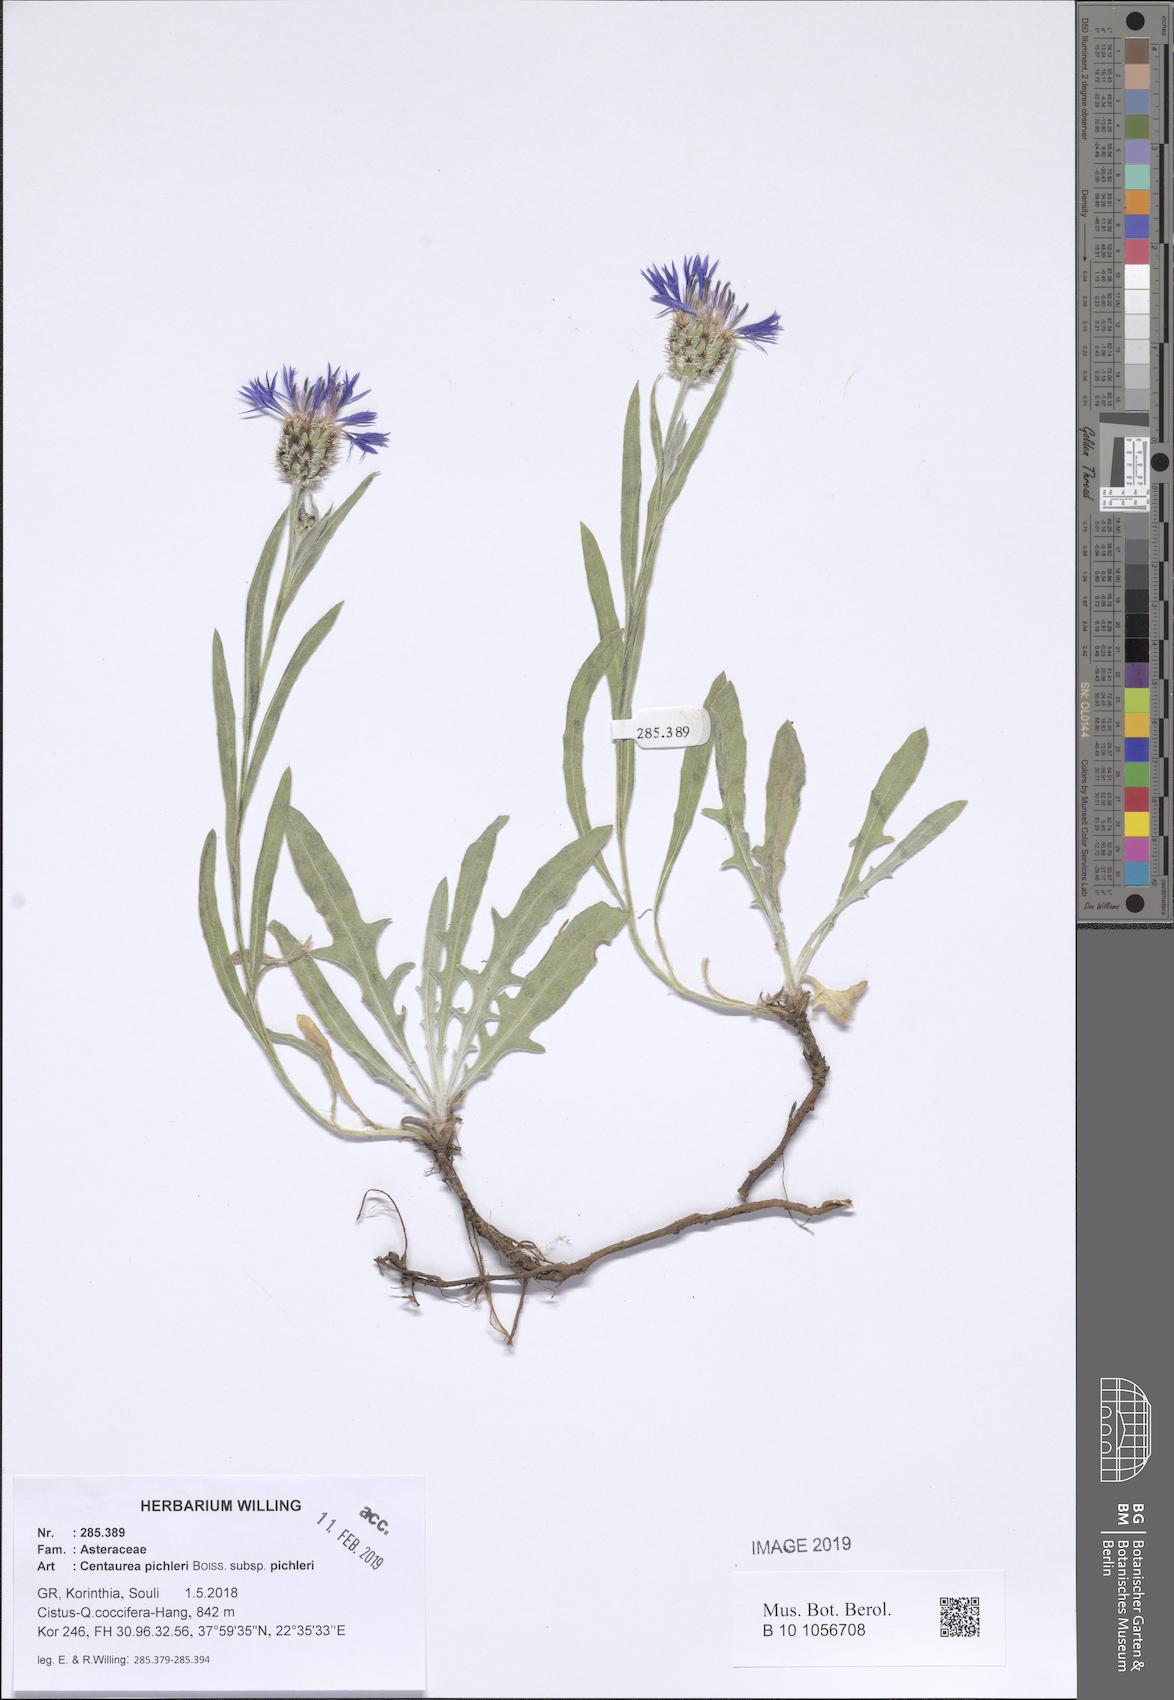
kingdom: Plantae
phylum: Tracheophyta
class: Magnoliopsida
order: Asterales
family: Asteraceae
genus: Centaurea
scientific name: Centaurea pichleri
